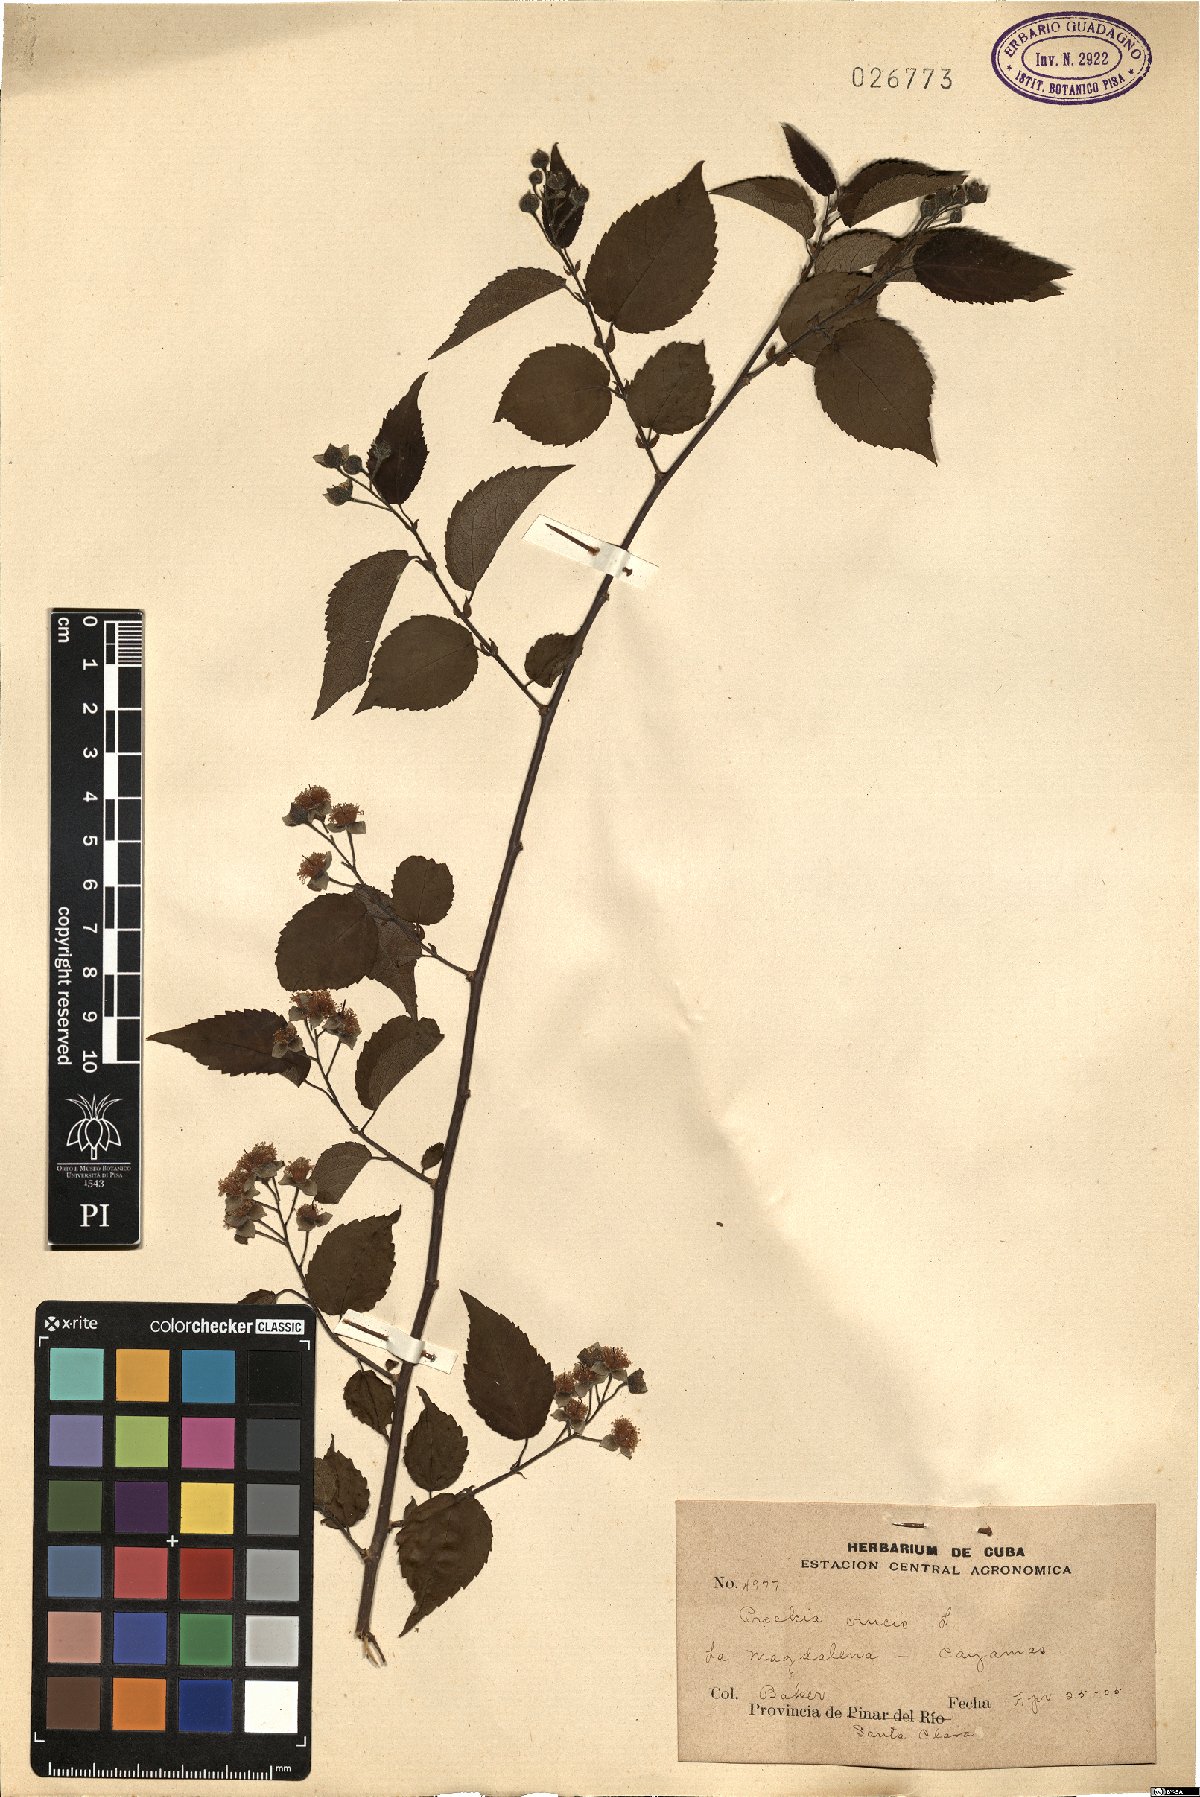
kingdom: Plantae
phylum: Tracheophyta
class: Magnoliopsida
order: Malpighiales
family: Salicaceae
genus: Prockia
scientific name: Prockia crucis
